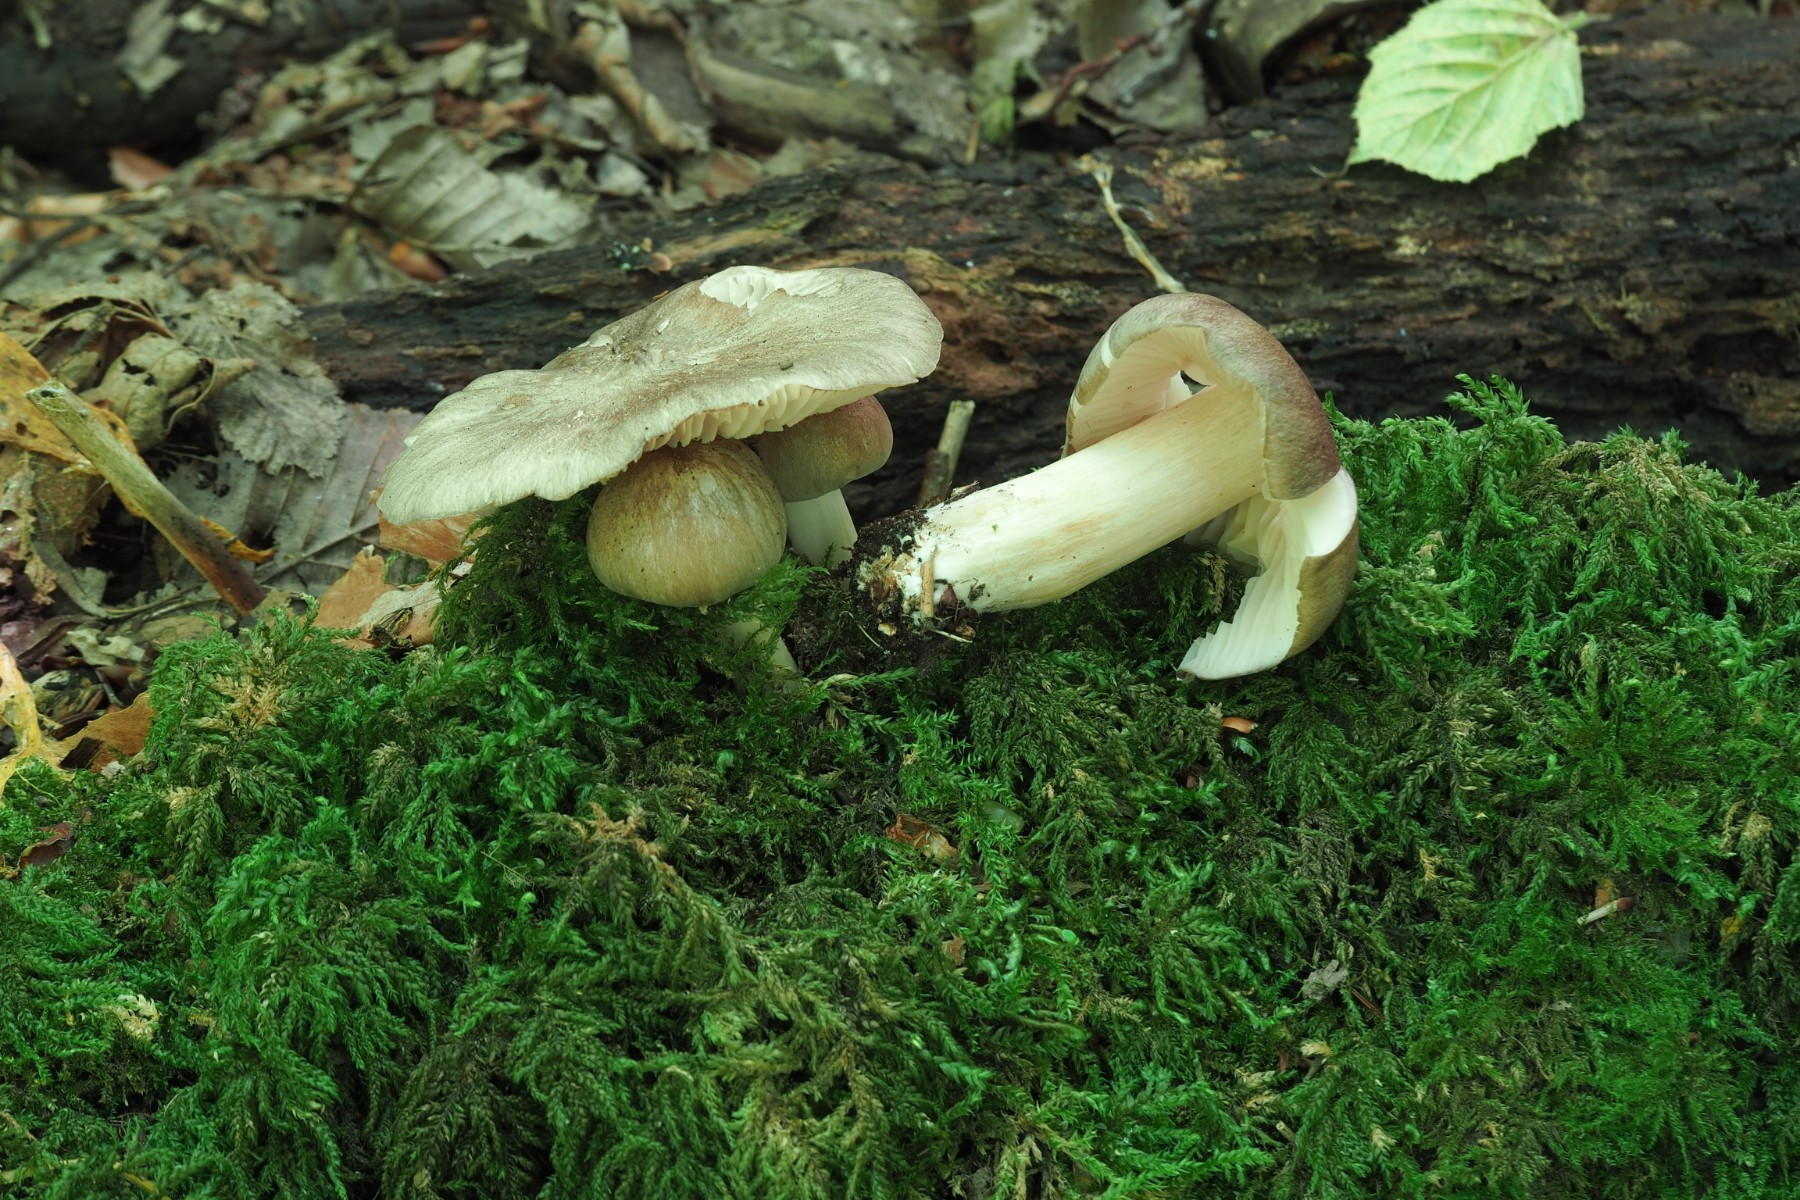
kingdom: Fungi
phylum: Basidiomycota
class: Agaricomycetes
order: Agaricales
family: Tricholomataceae
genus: Megacollybia
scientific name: Megacollybia platyphylla
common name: bredbladet væbnerhat
